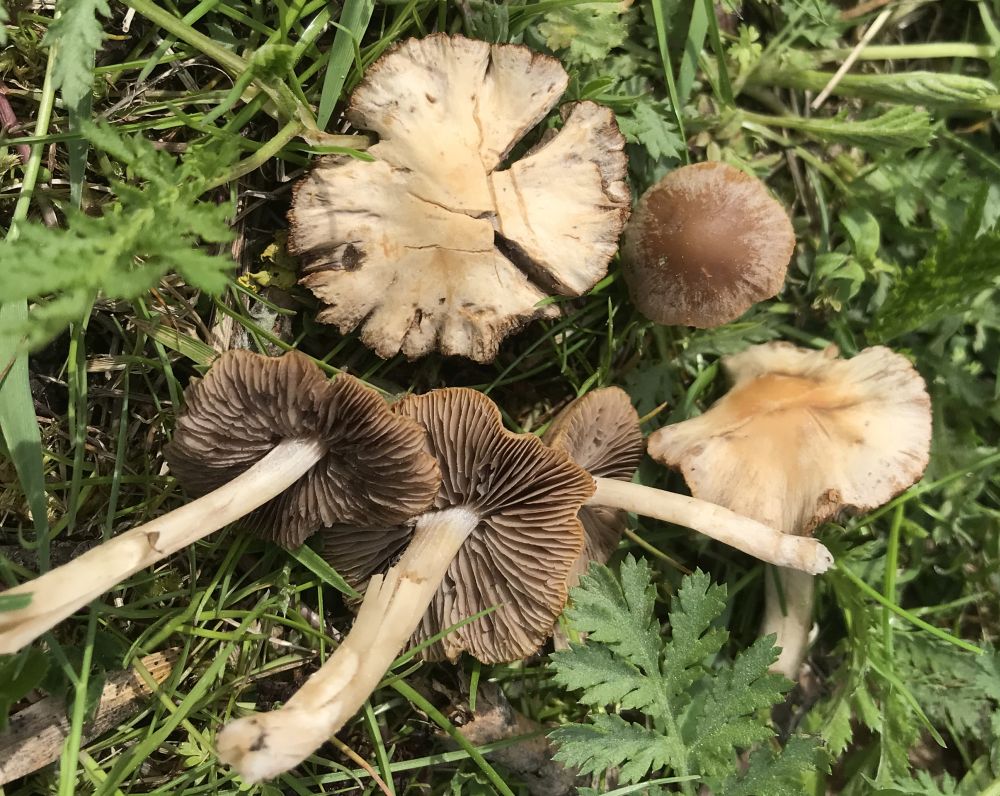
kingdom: Fungi
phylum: Basidiomycota
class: Agaricomycetes
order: Agaricales
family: Psathyrellaceae
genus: Psathyrella
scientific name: Psathyrella
